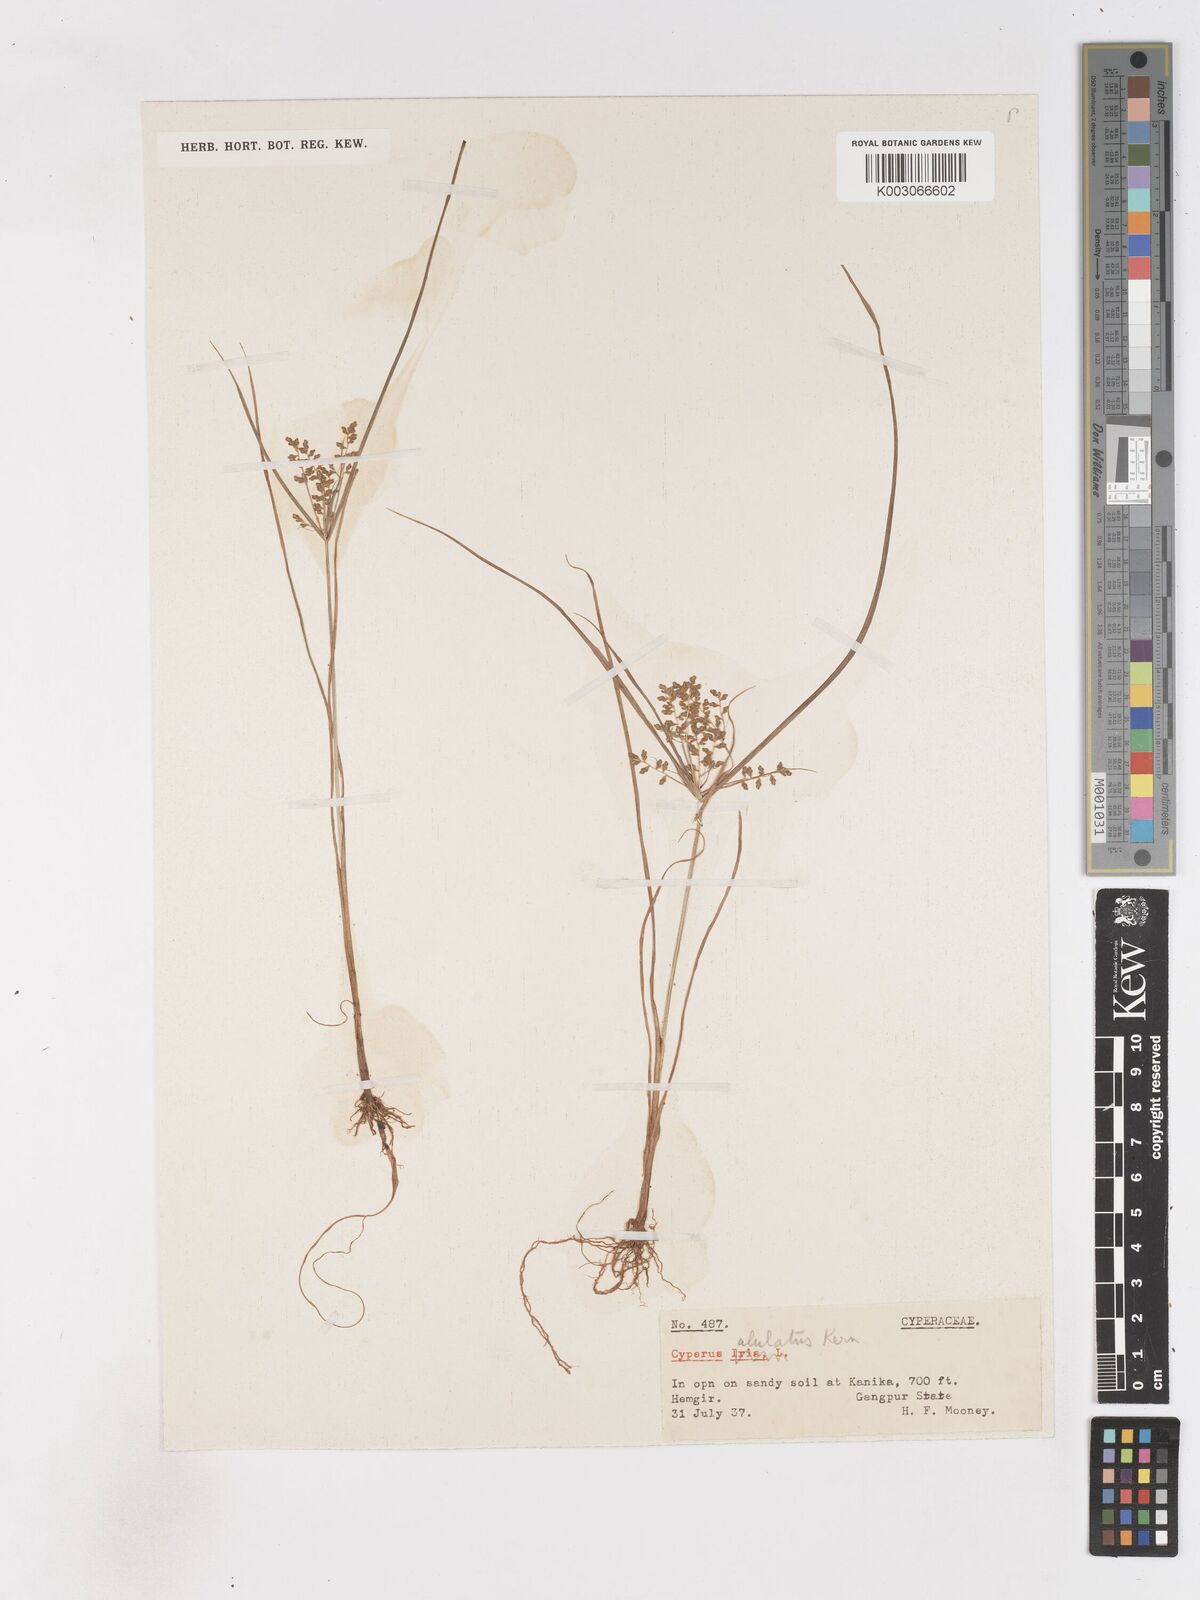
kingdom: Plantae
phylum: Tracheophyta
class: Liliopsida
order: Poales
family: Cyperaceae
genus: Cyperus
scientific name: Cyperus alulatus
